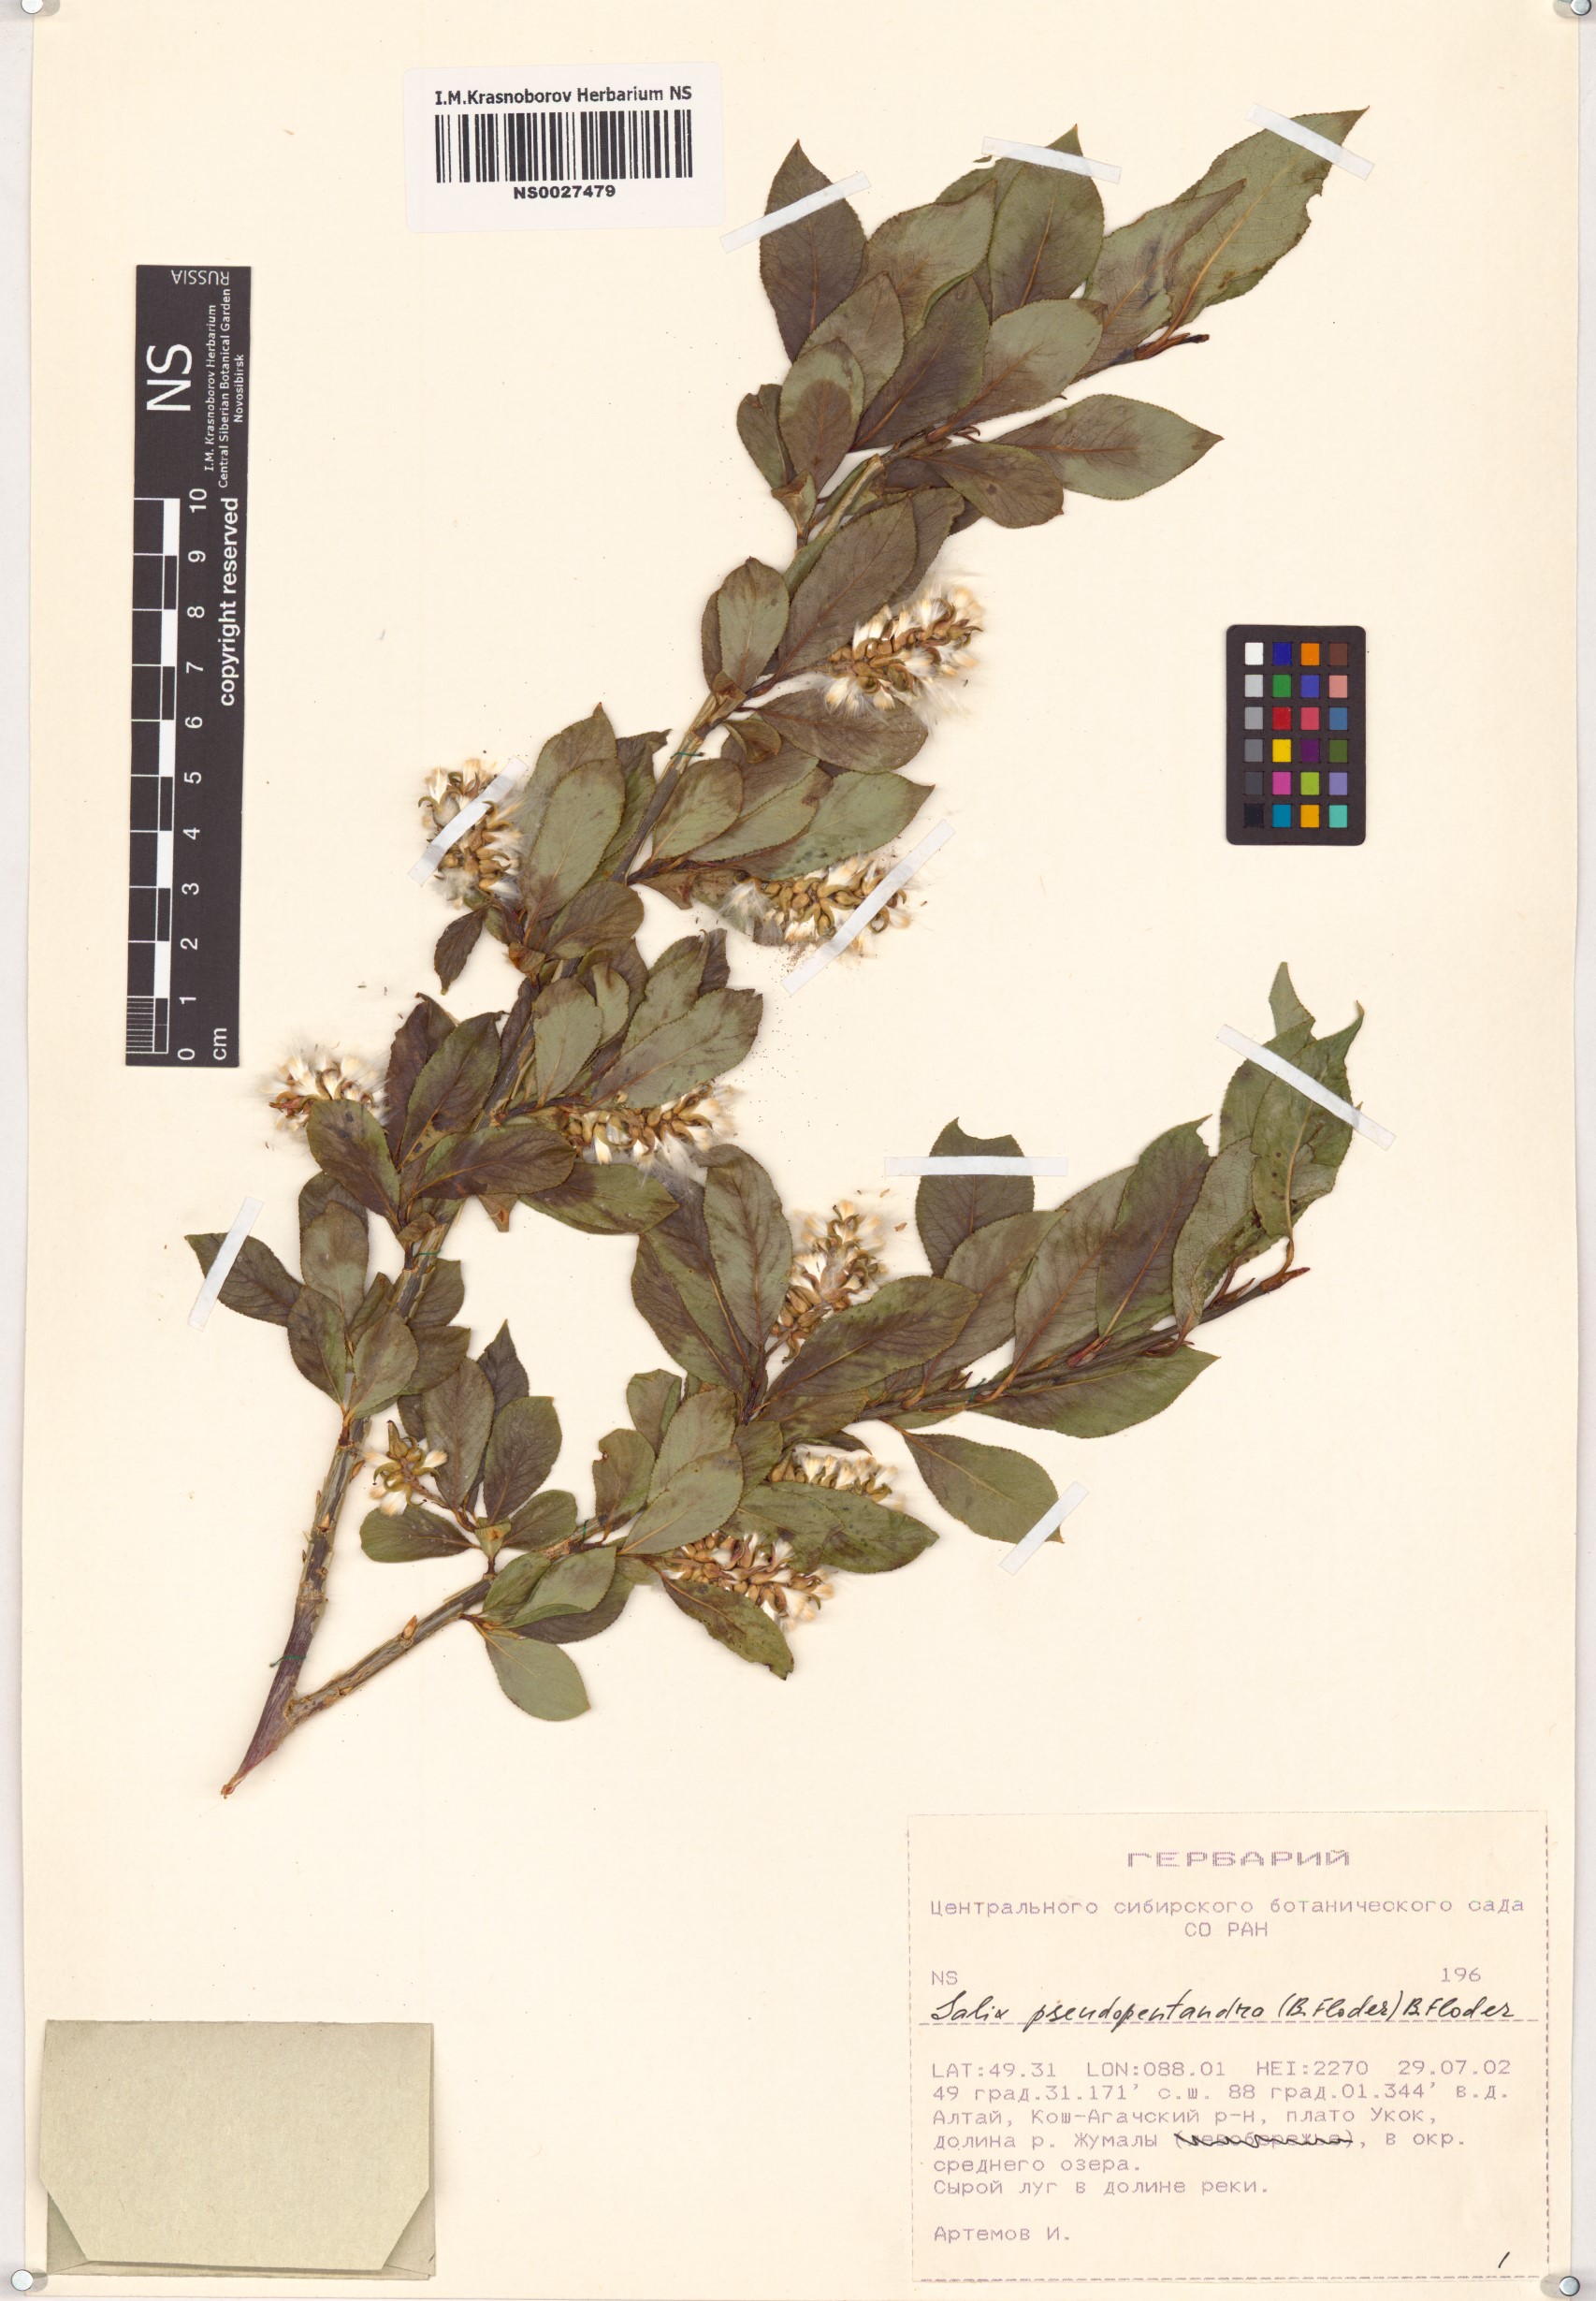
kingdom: Plantae
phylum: Tracheophyta
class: Magnoliopsida
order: Malpighiales
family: Salicaceae
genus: Salix
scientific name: Salix pseudopentandra
